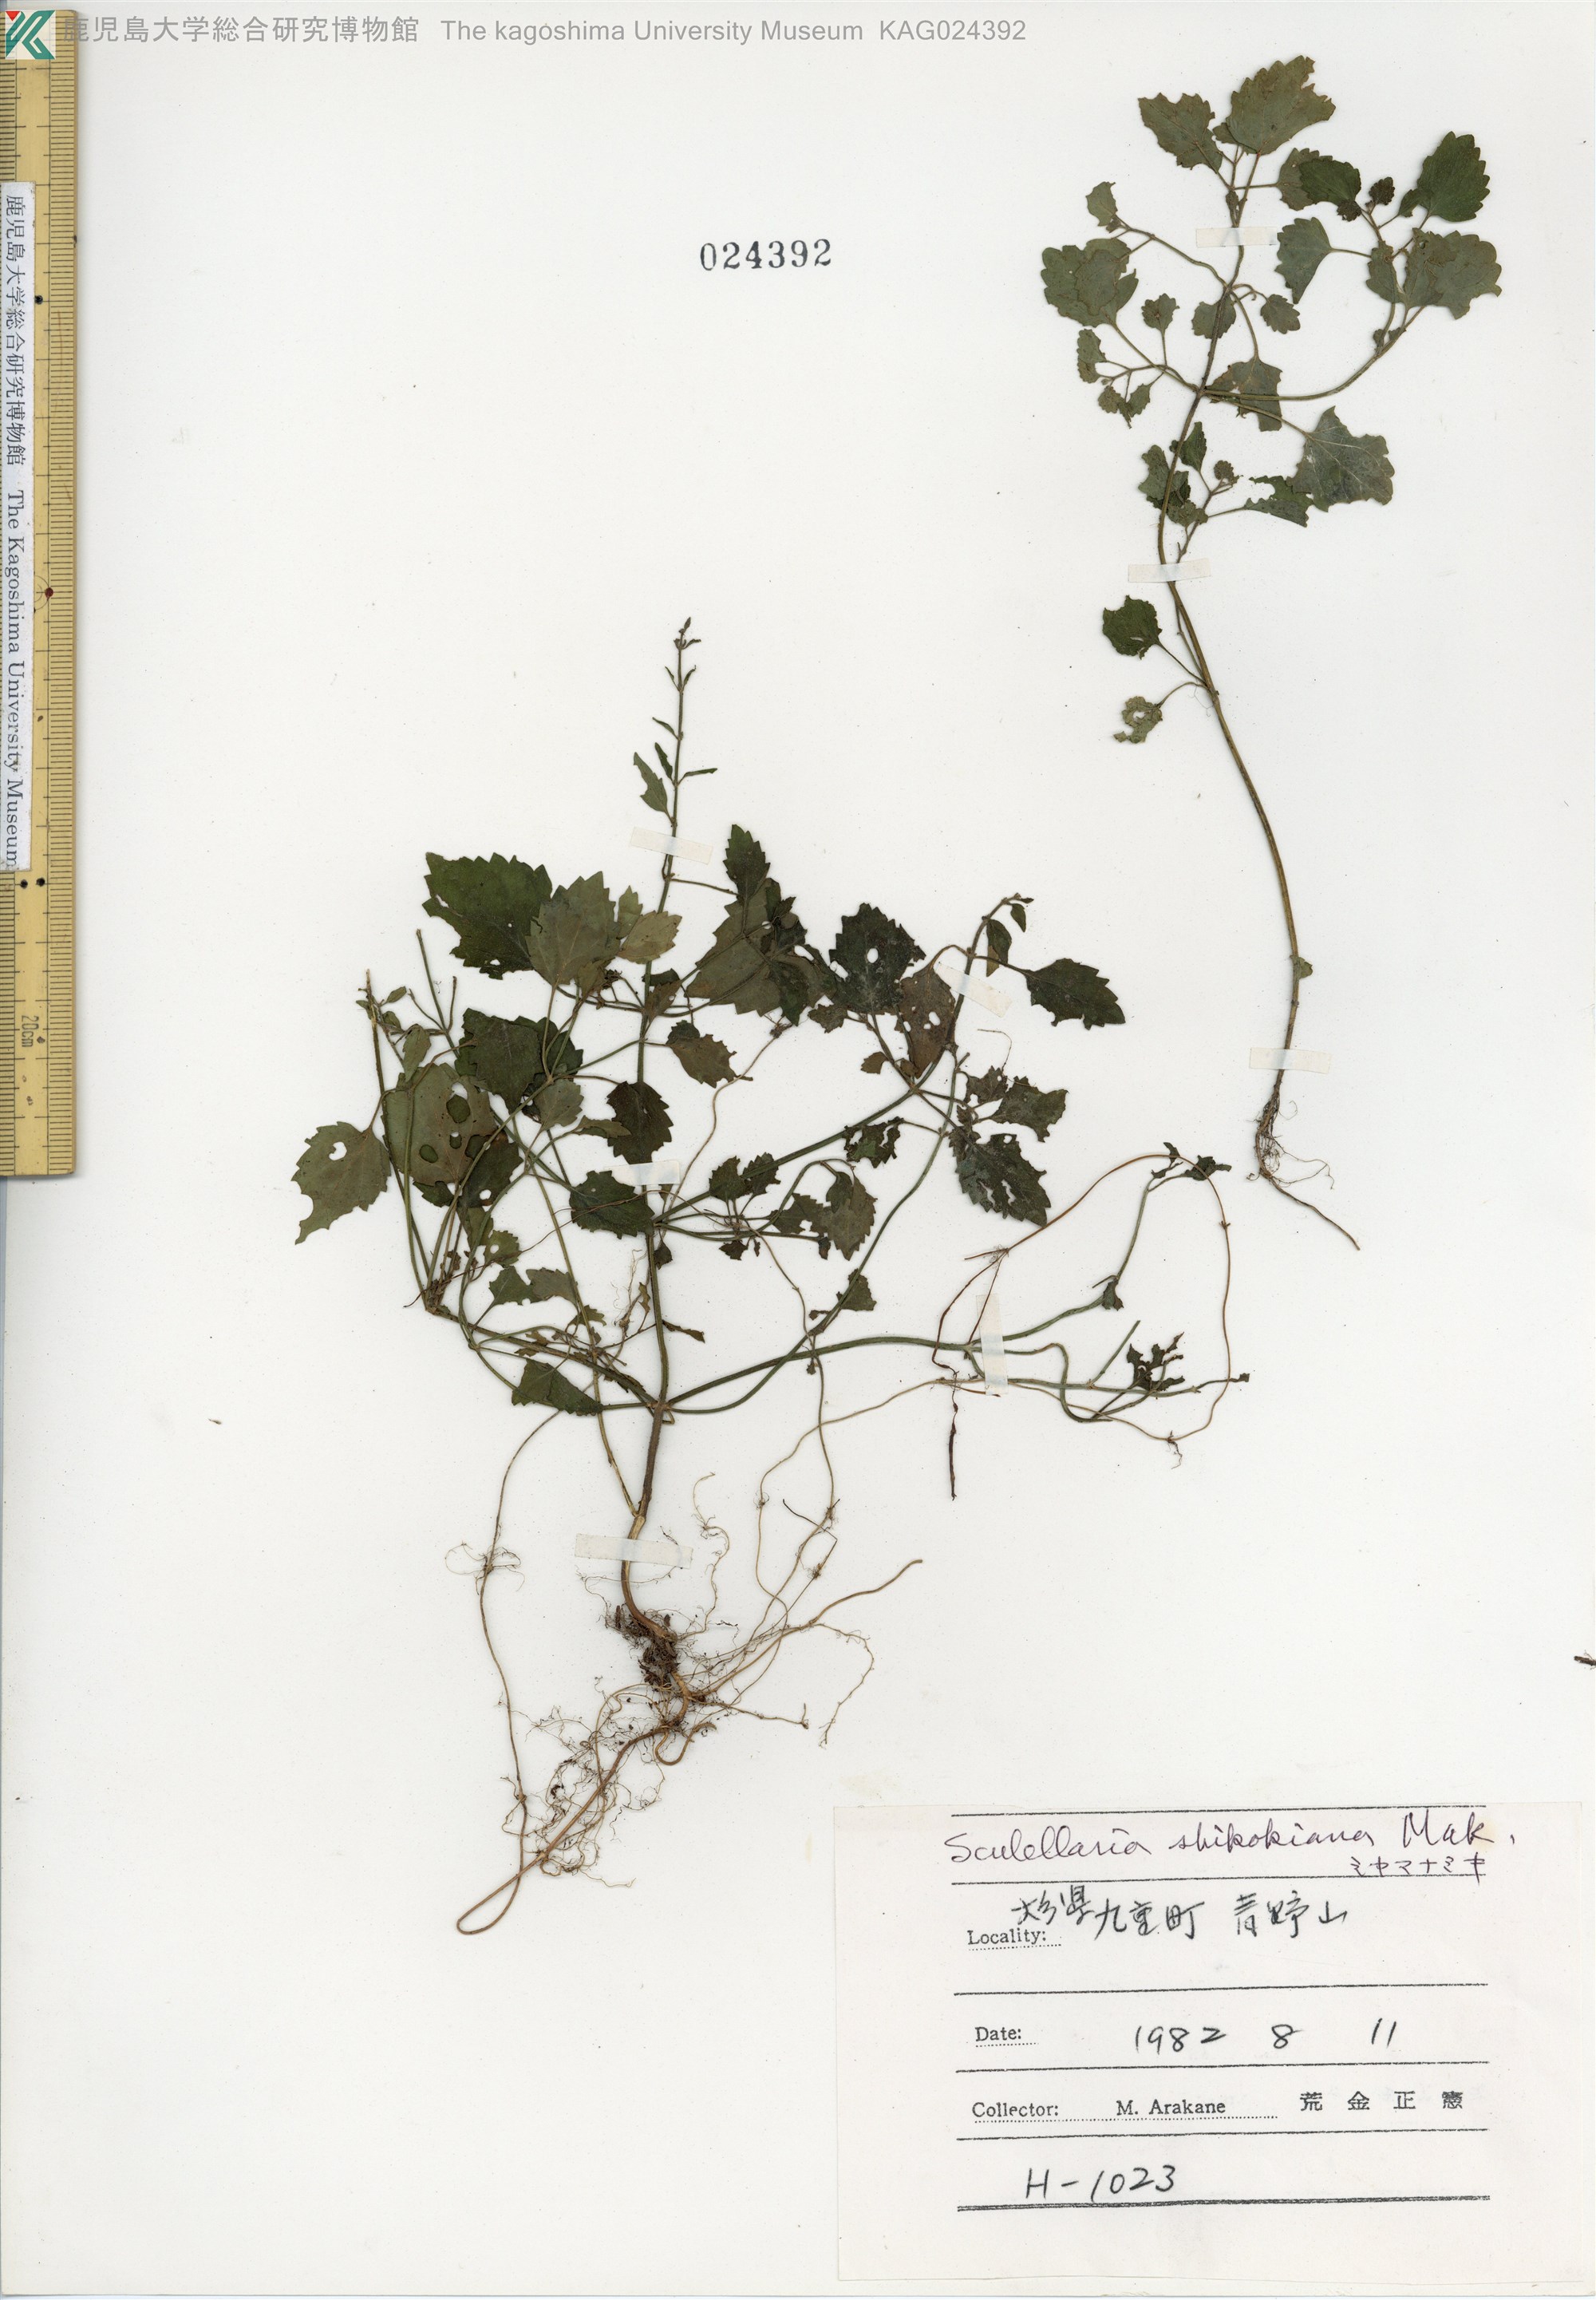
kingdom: Plantae
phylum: Tracheophyta
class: Magnoliopsida
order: Lamiales
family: Lamiaceae
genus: Scutellaria
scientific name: Scutellaria shikokiana
